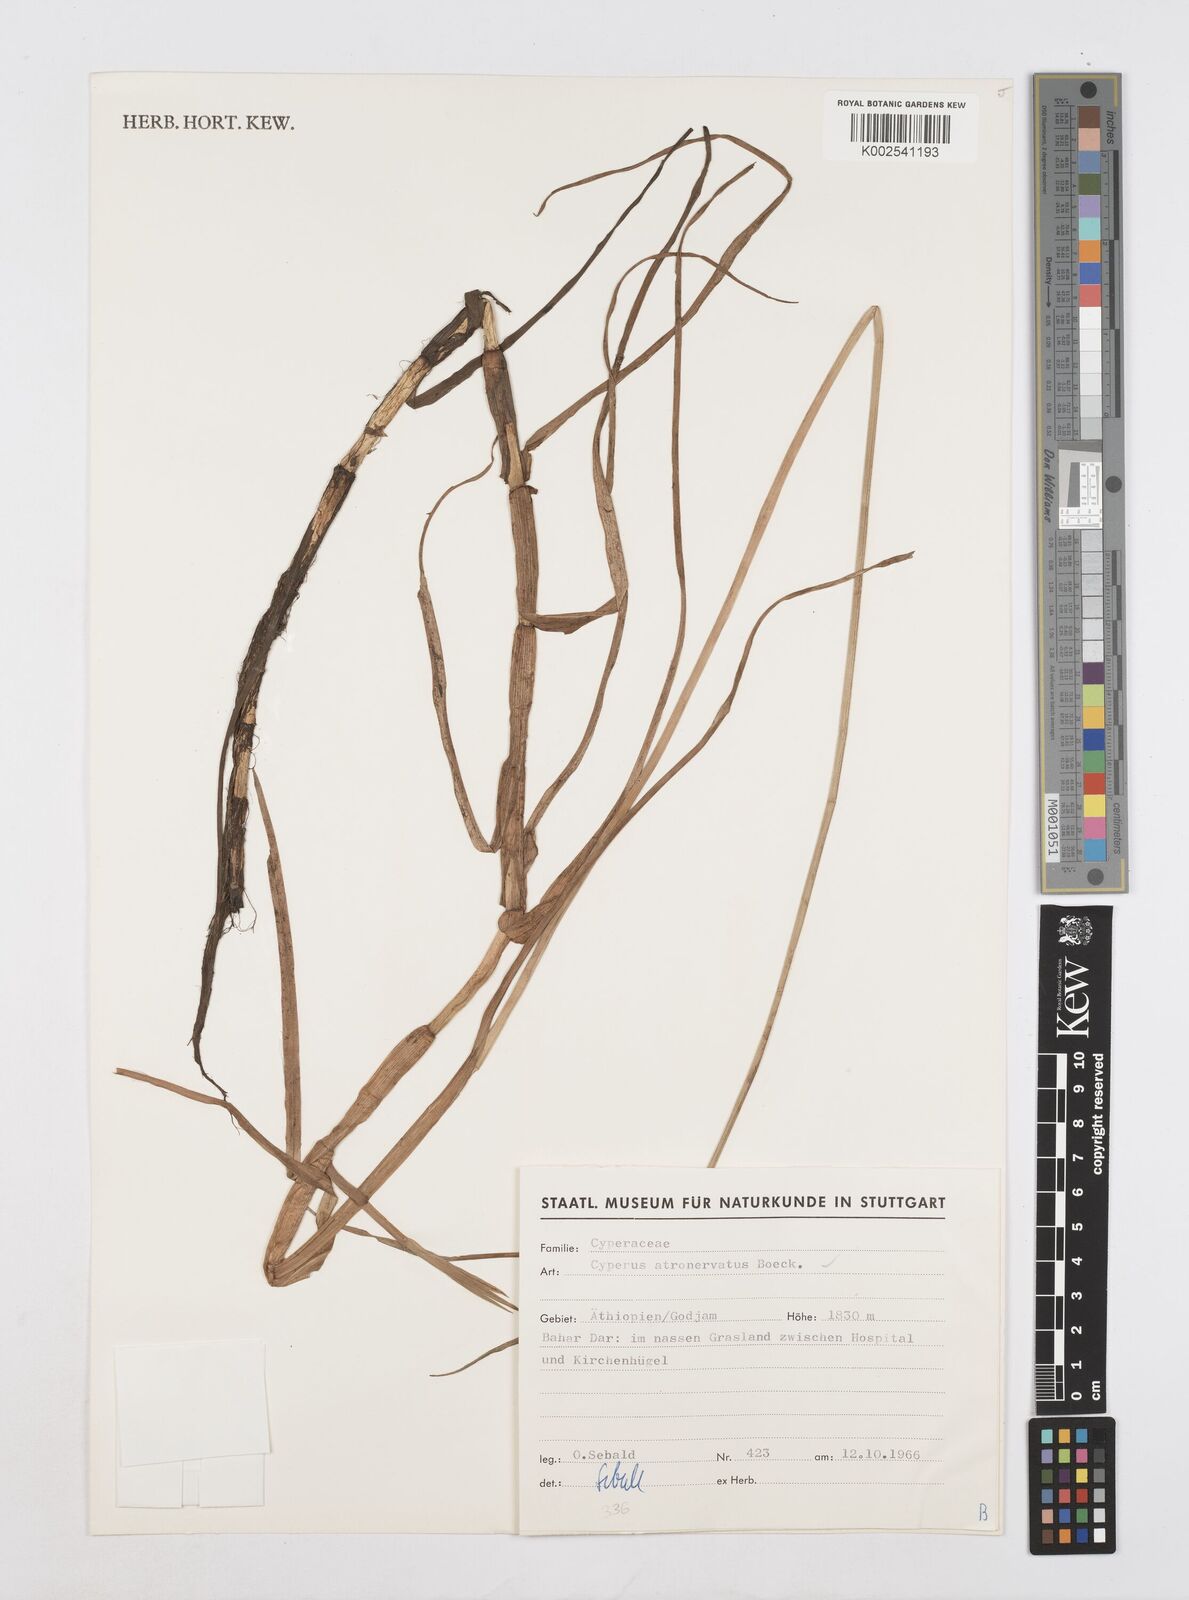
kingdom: Plantae
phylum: Tracheophyta
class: Liliopsida
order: Poales
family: Cyperaceae
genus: Cyperus
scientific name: Cyperus atronervatus
